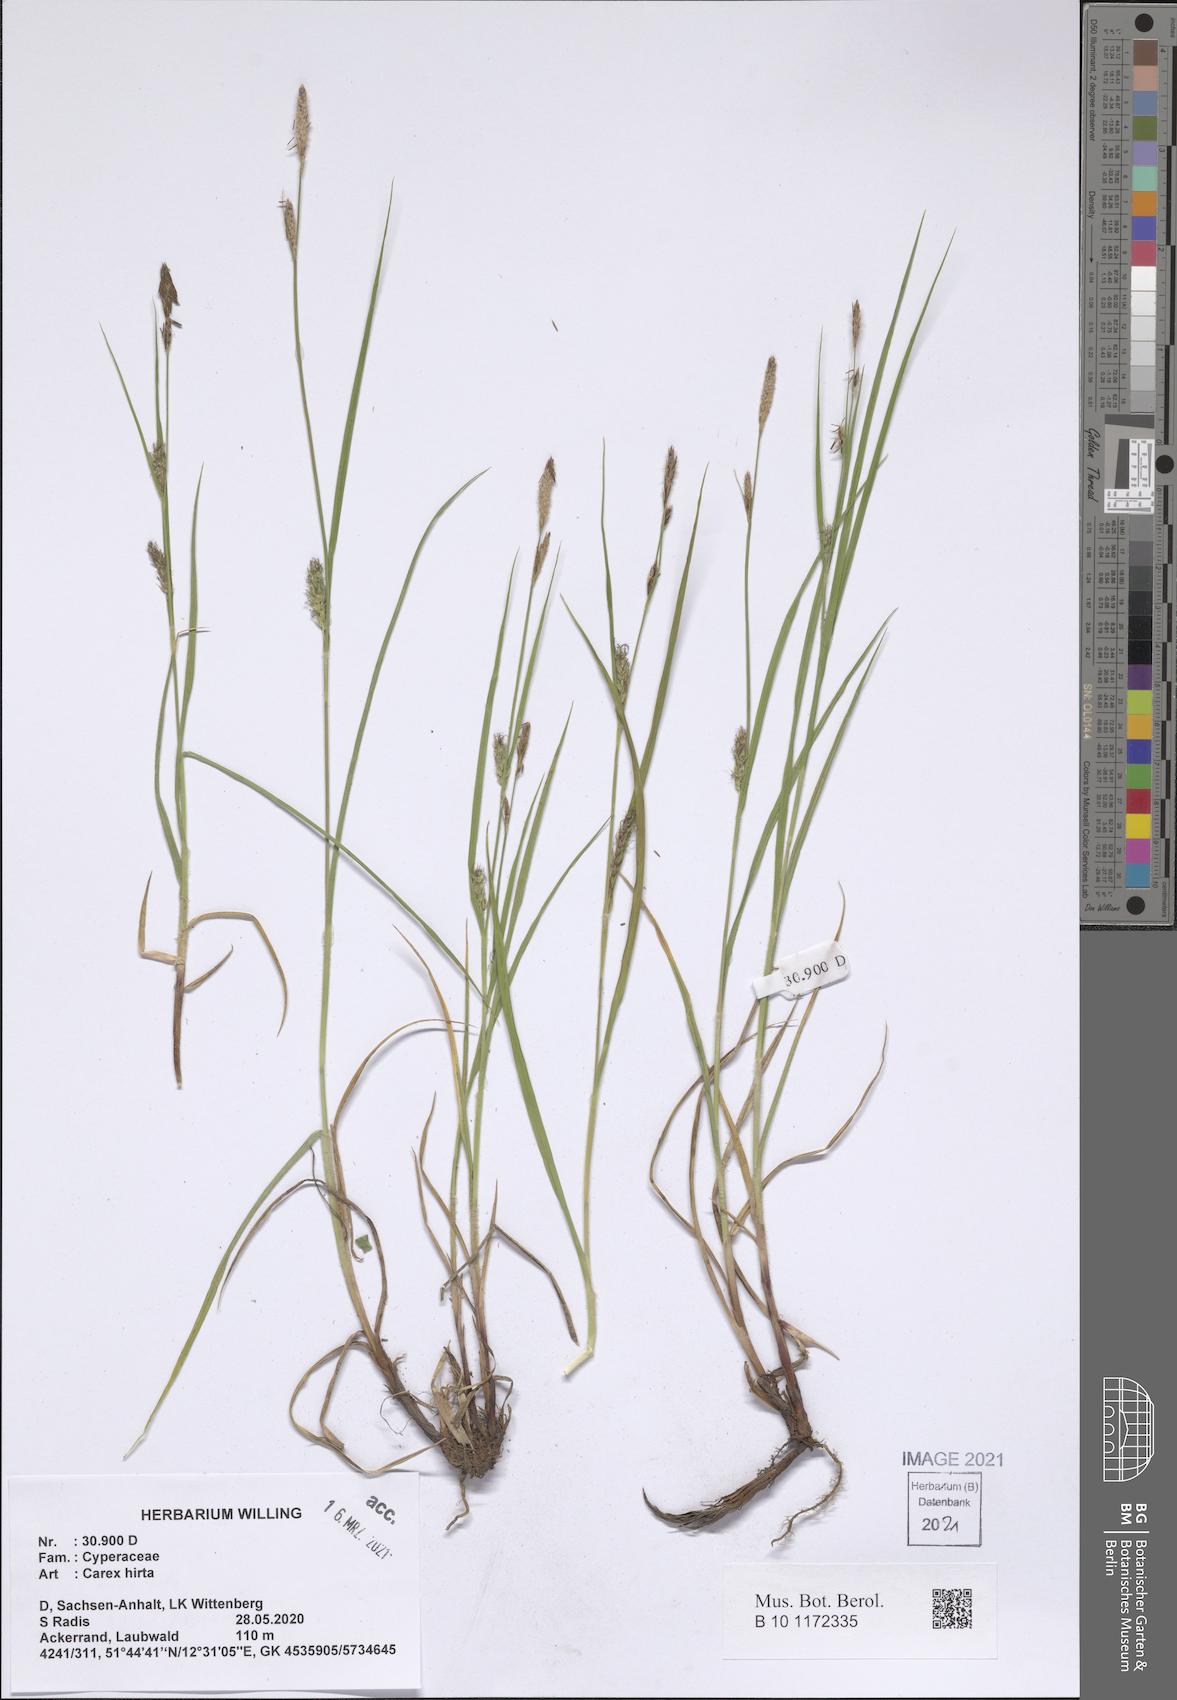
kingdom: Plantae
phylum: Tracheophyta
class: Liliopsida
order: Poales
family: Cyperaceae
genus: Carex
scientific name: Carex hirta
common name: Hairy sedge
